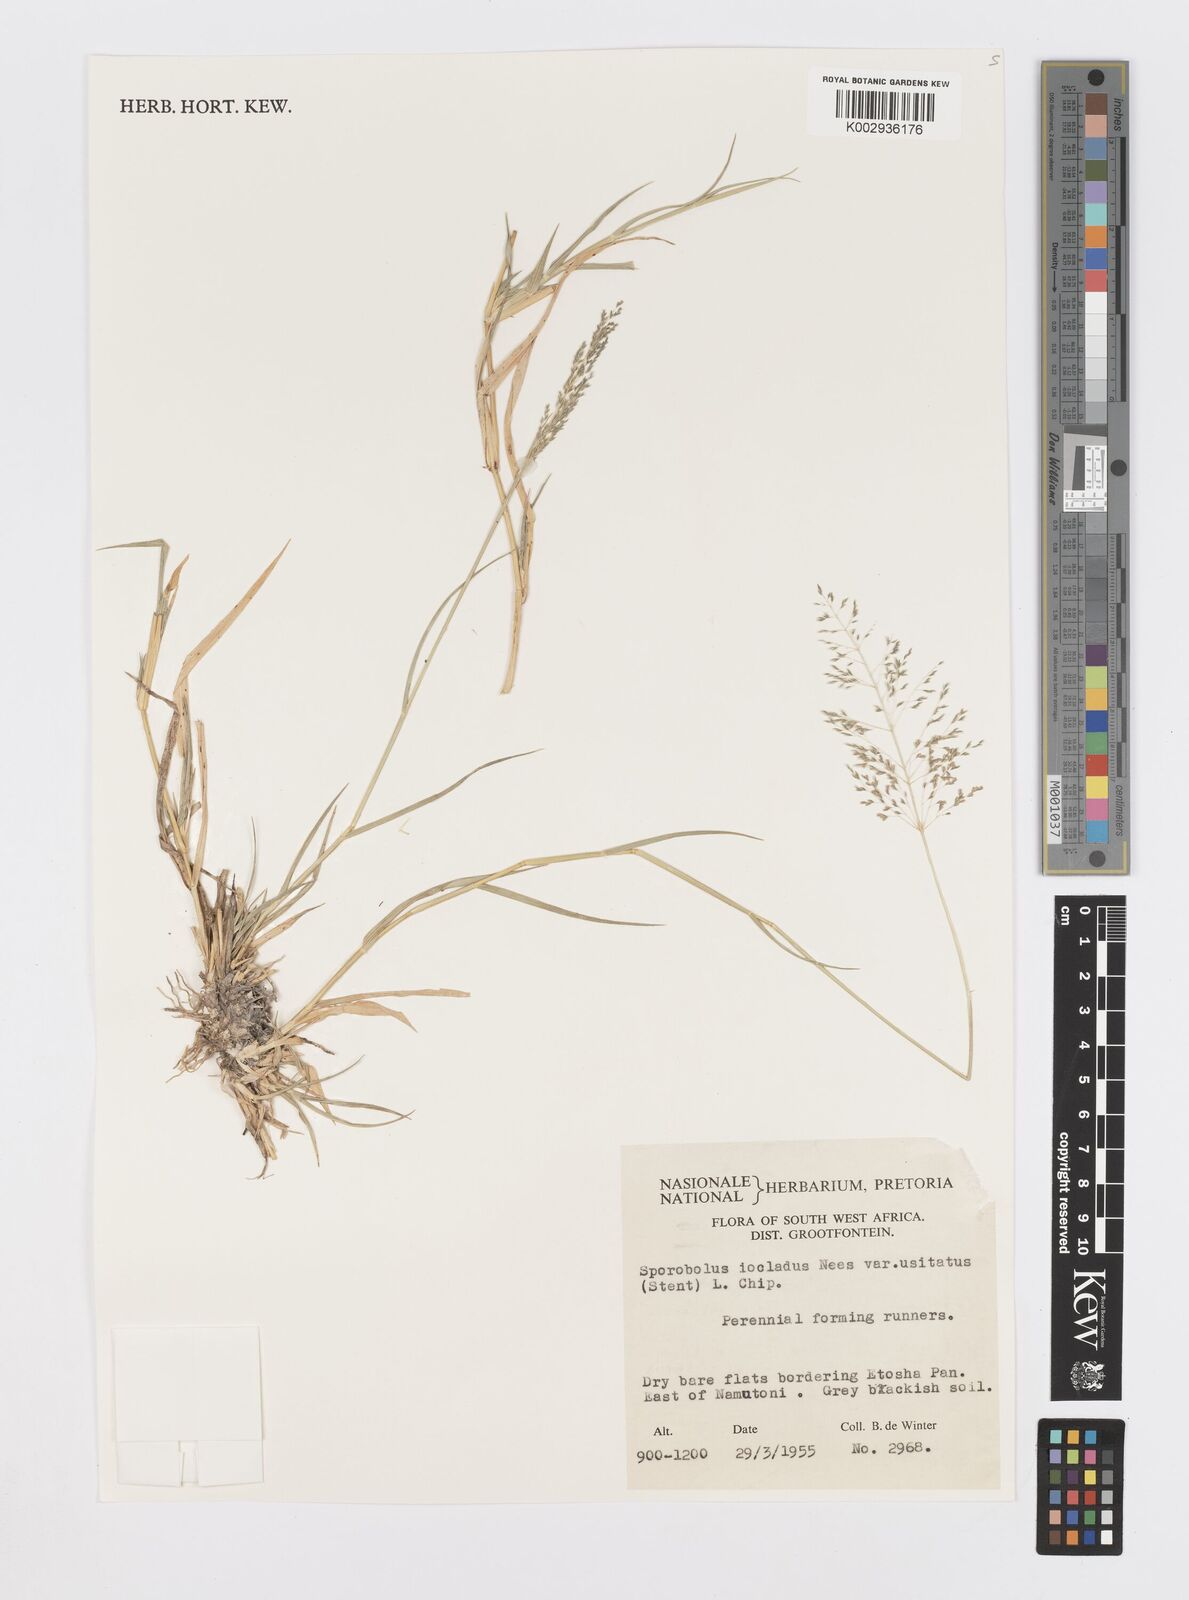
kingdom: Plantae
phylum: Tracheophyta
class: Liliopsida
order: Poales
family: Poaceae
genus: Sporobolus
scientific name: Sporobolus ioclados
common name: Pan dropseed
